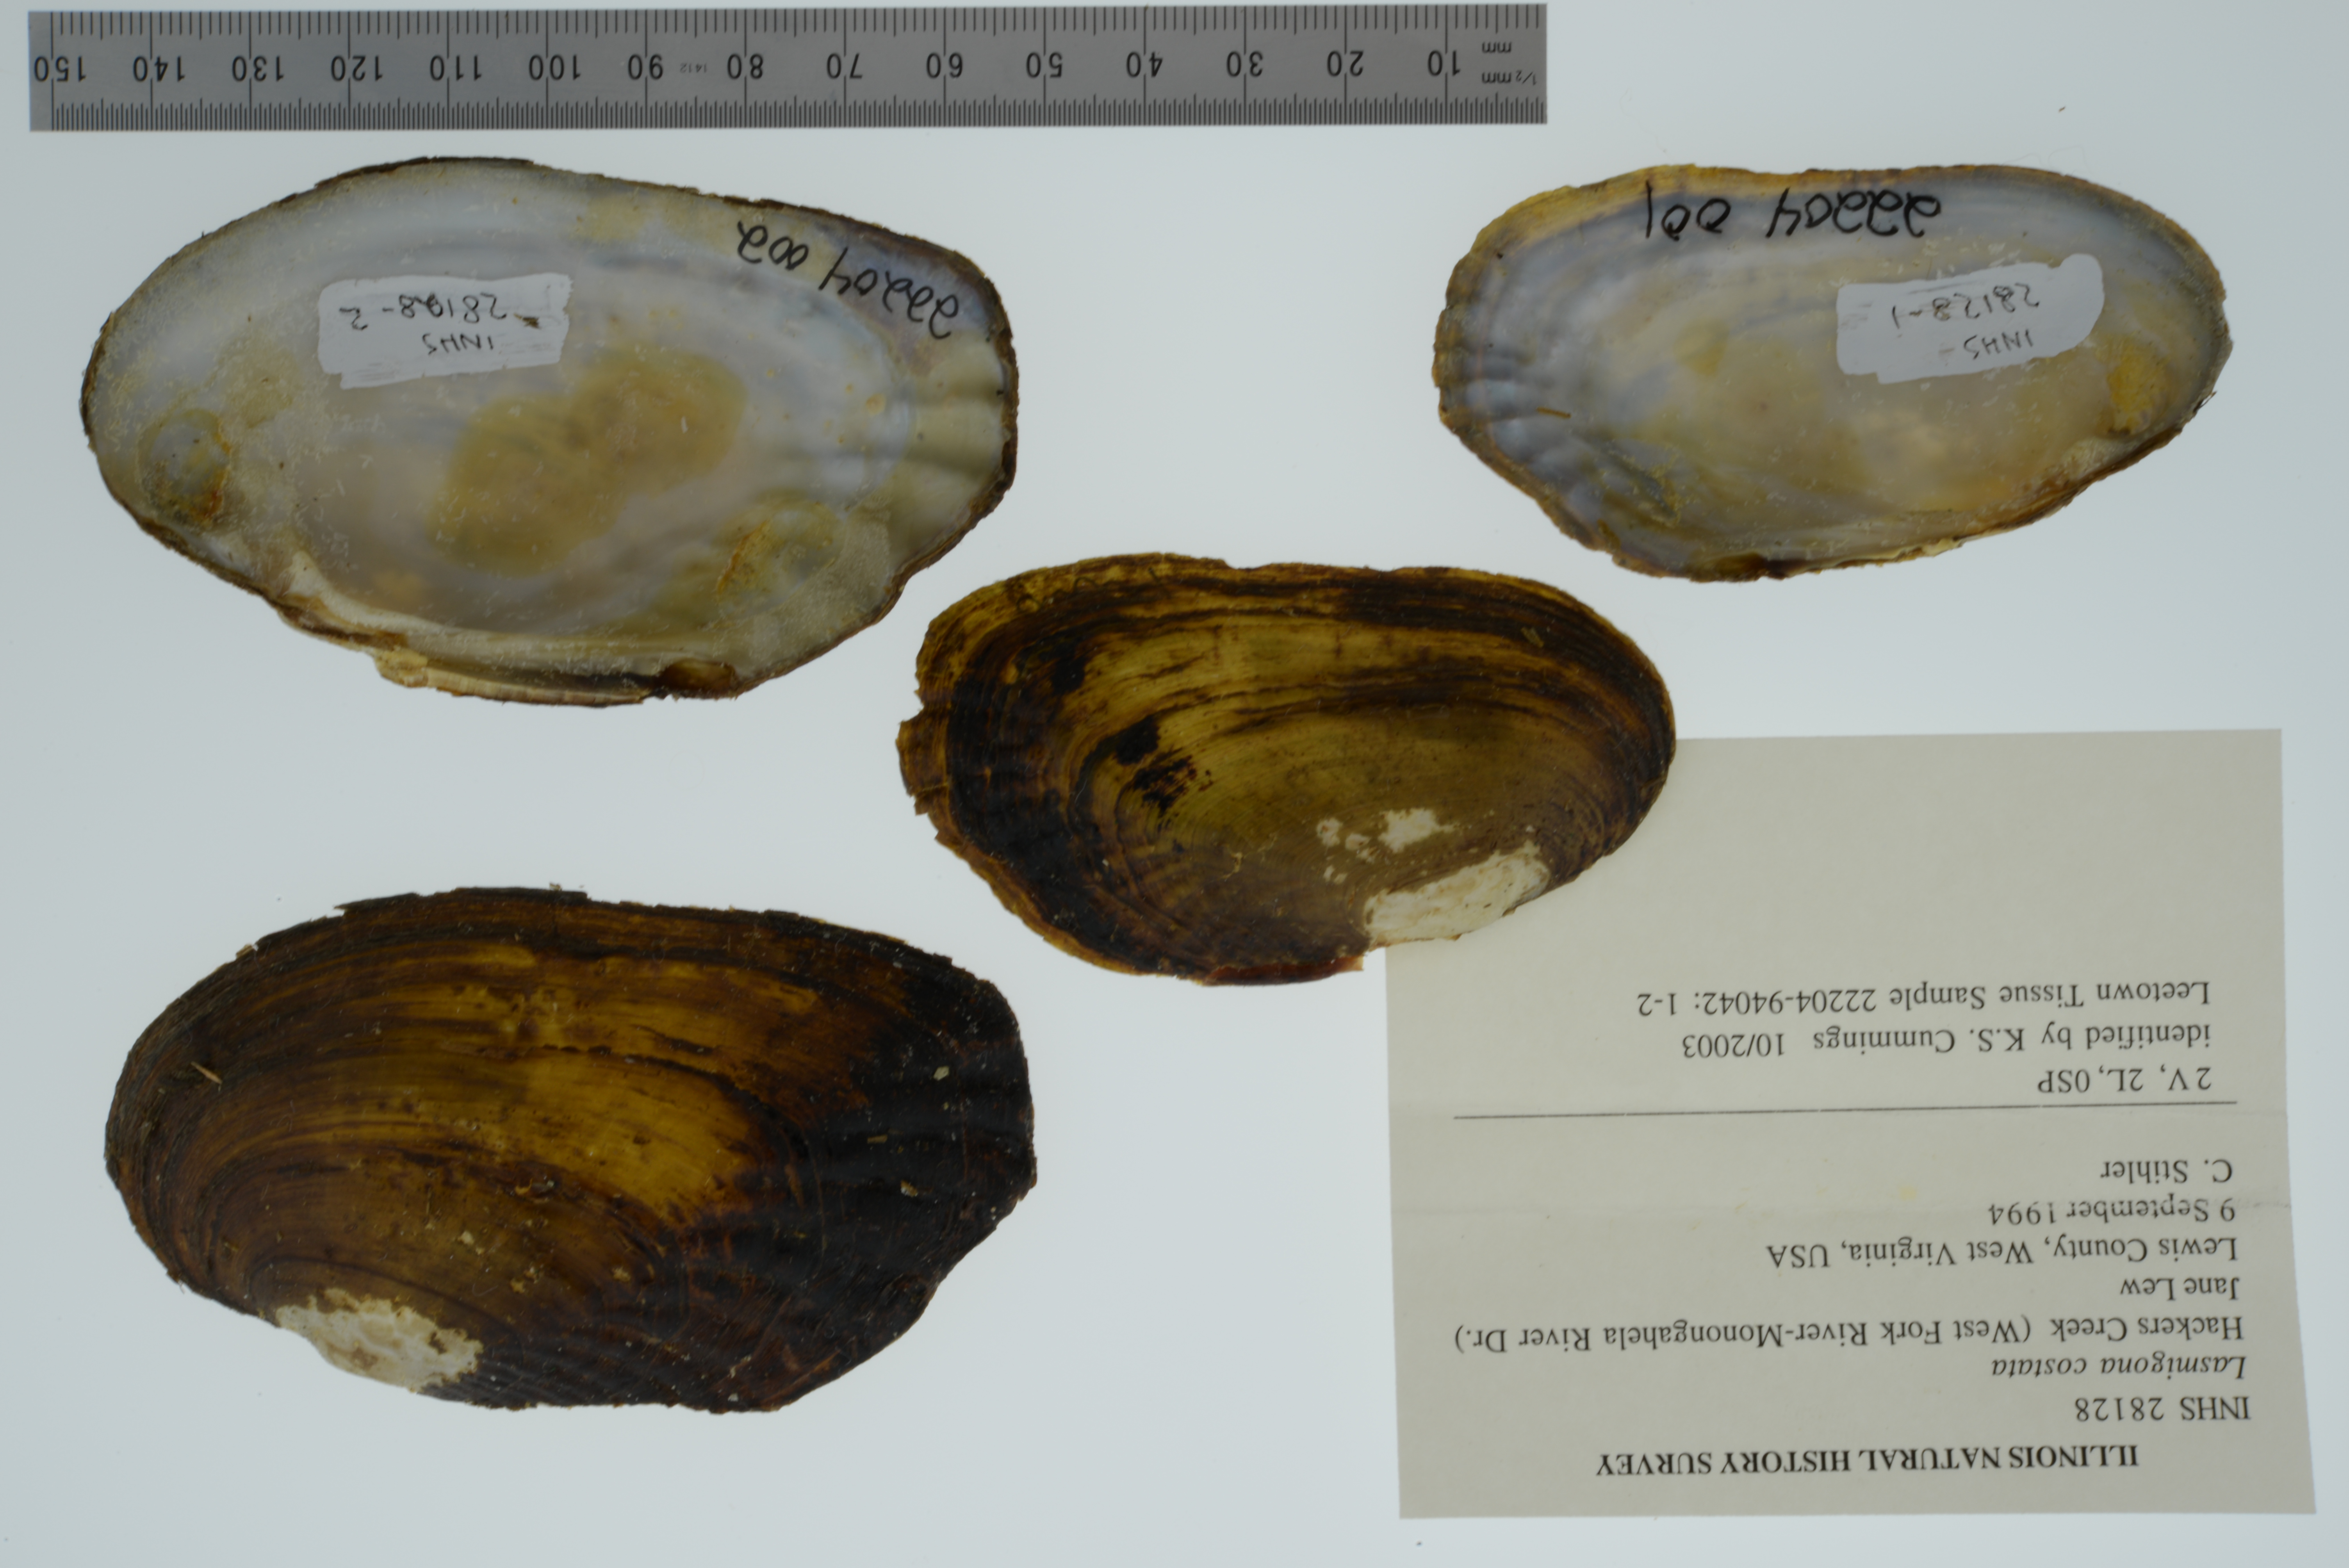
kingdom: Animalia
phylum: Mollusca
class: Bivalvia
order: Unionida
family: Unionidae
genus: Lasmigona
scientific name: Lasmigona costata
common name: Flutedshell
